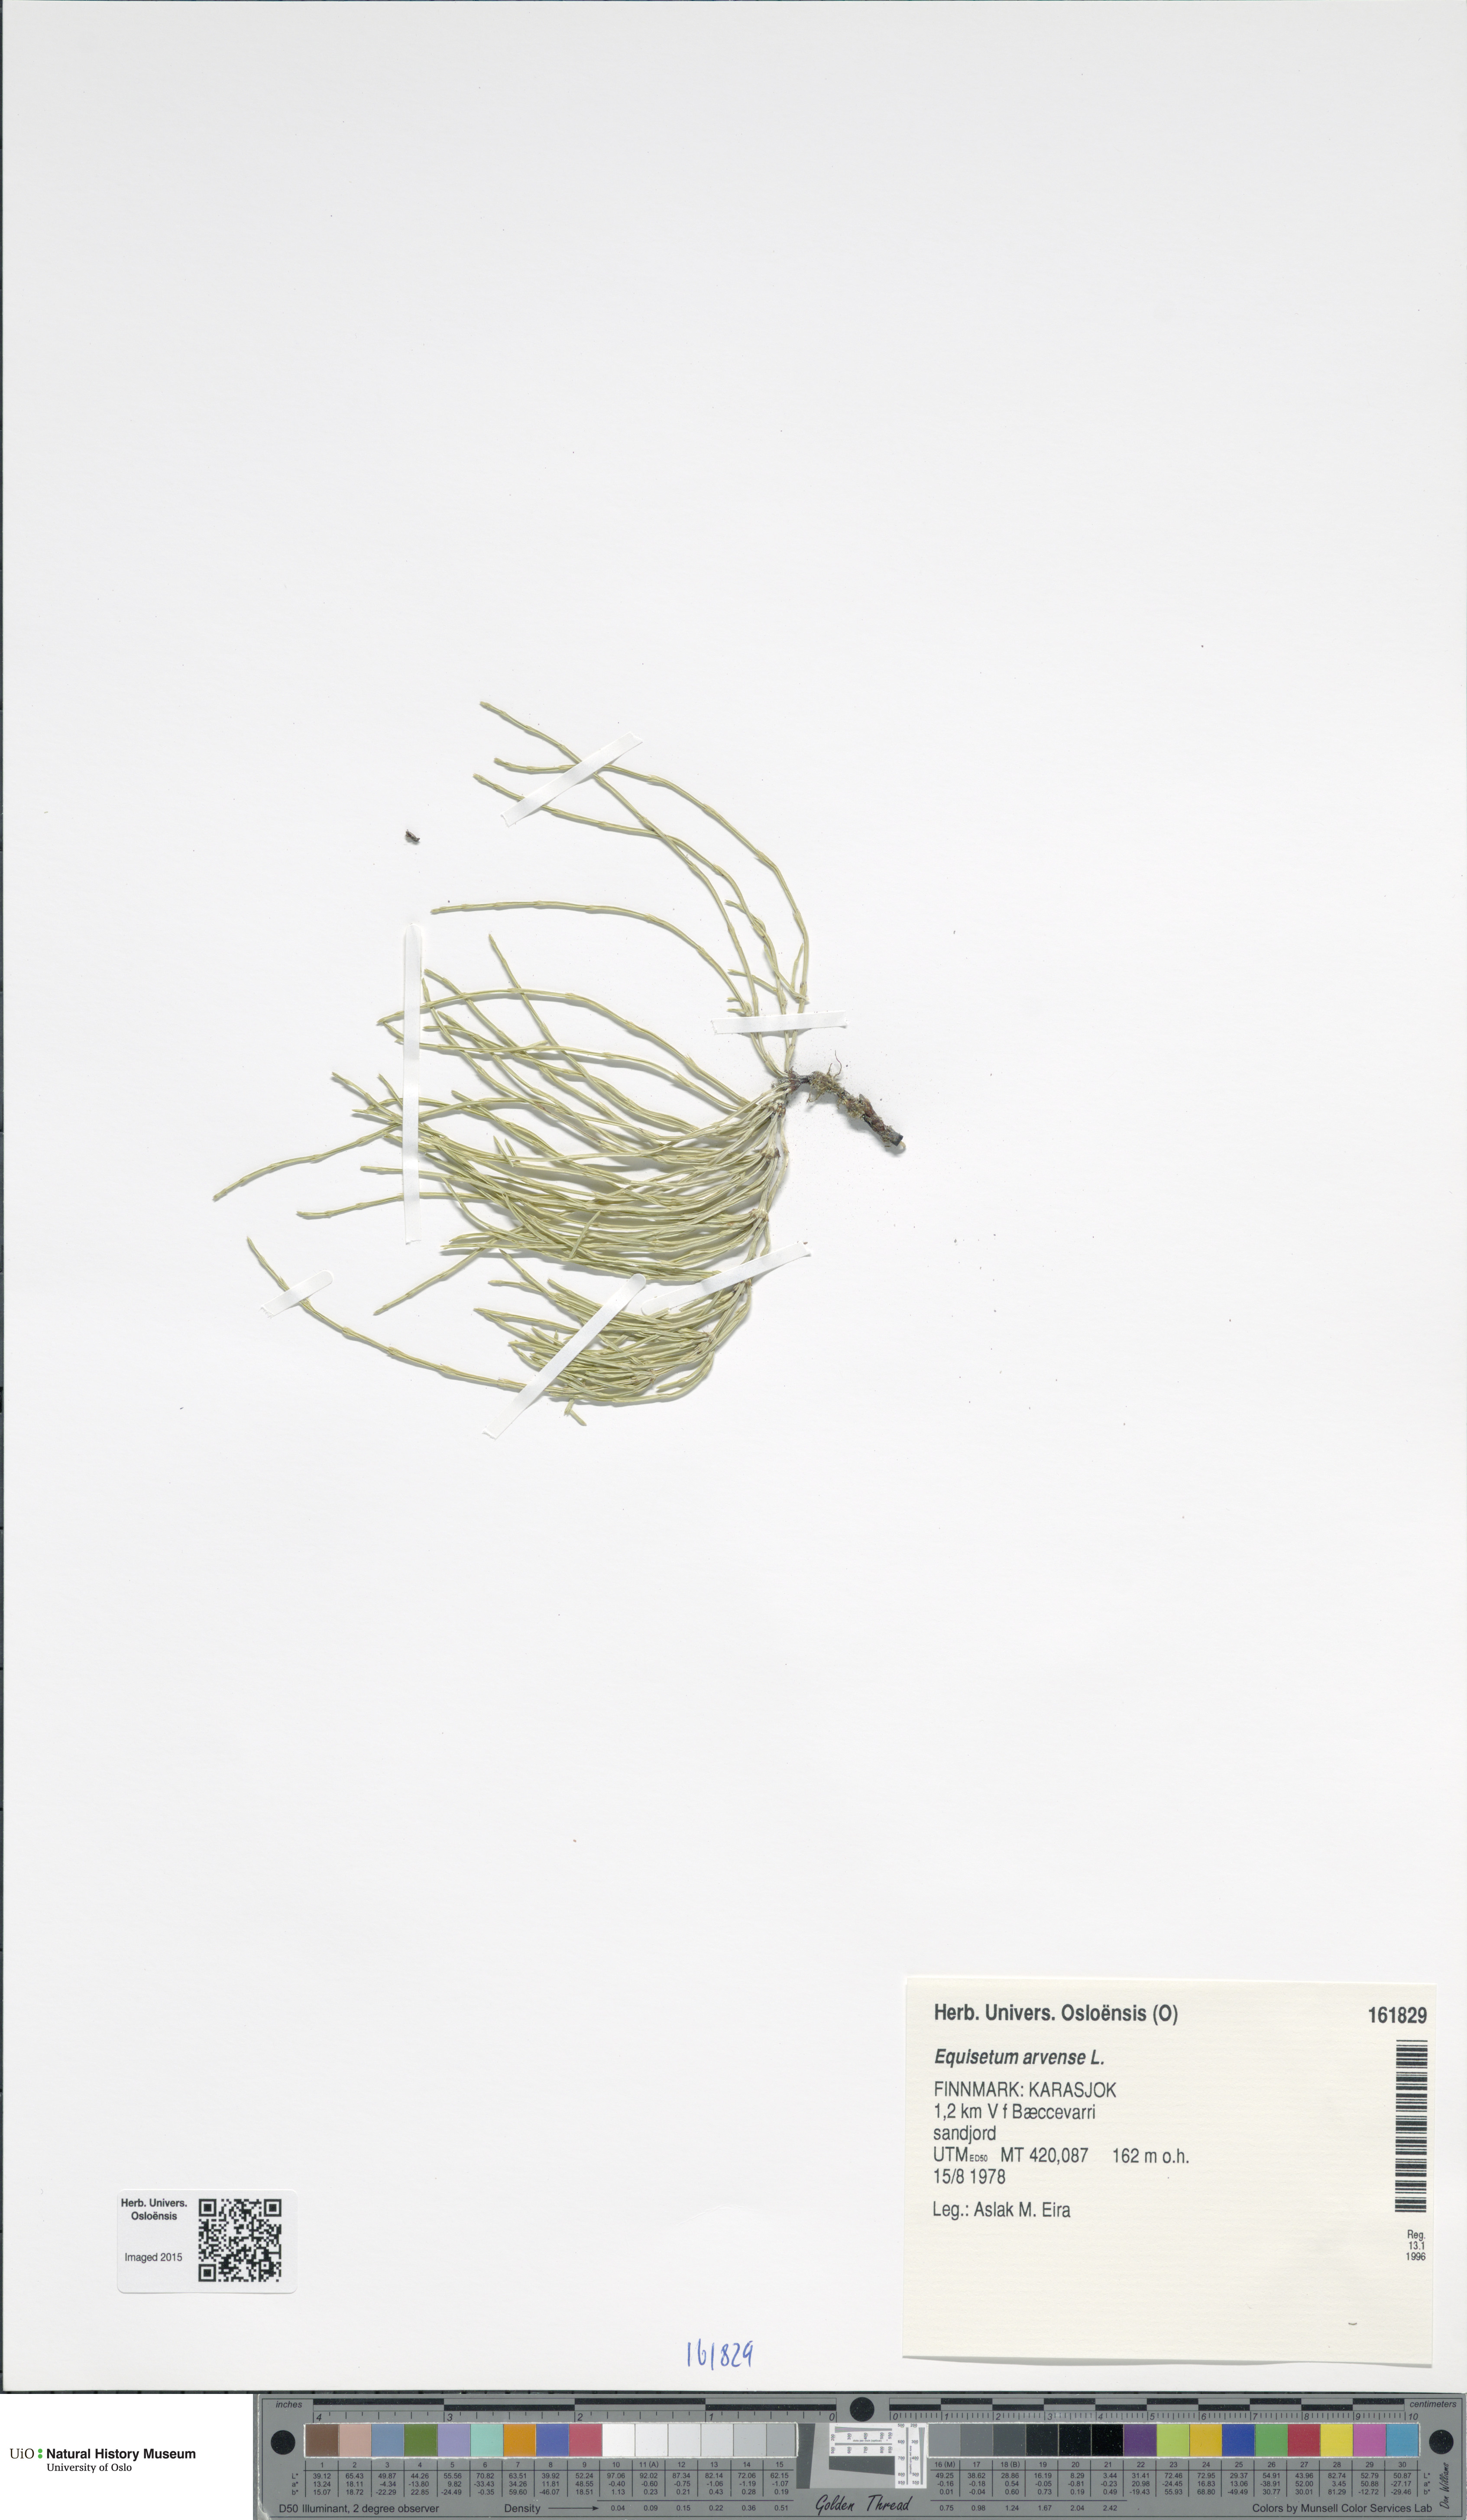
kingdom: Plantae
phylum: Tracheophyta
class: Polypodiopsida
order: Equisetales
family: Equisetaceae
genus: Equisetum
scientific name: Equisetum arvense
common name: Field horsetail
